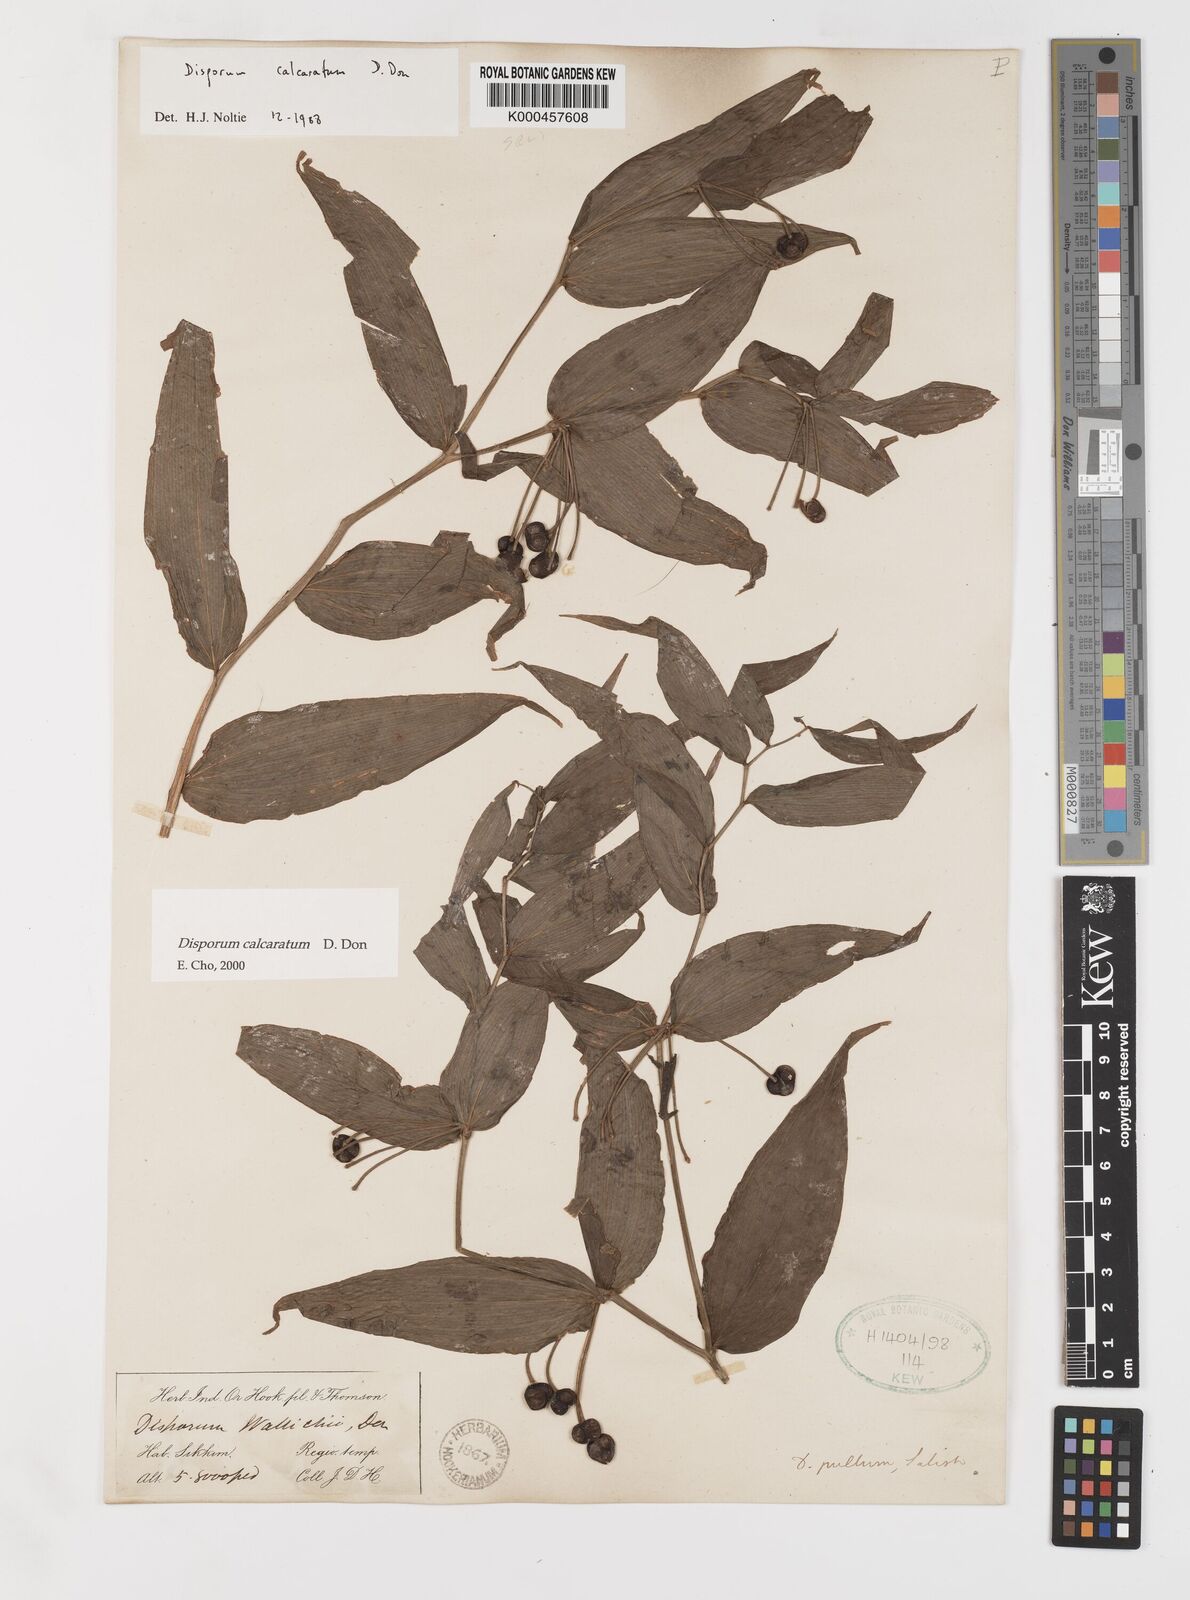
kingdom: Plantae
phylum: Tracheophyta
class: Liliopsida
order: Liliales
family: Colchicaceae
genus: Disporum
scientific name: Disporum calcaratum
